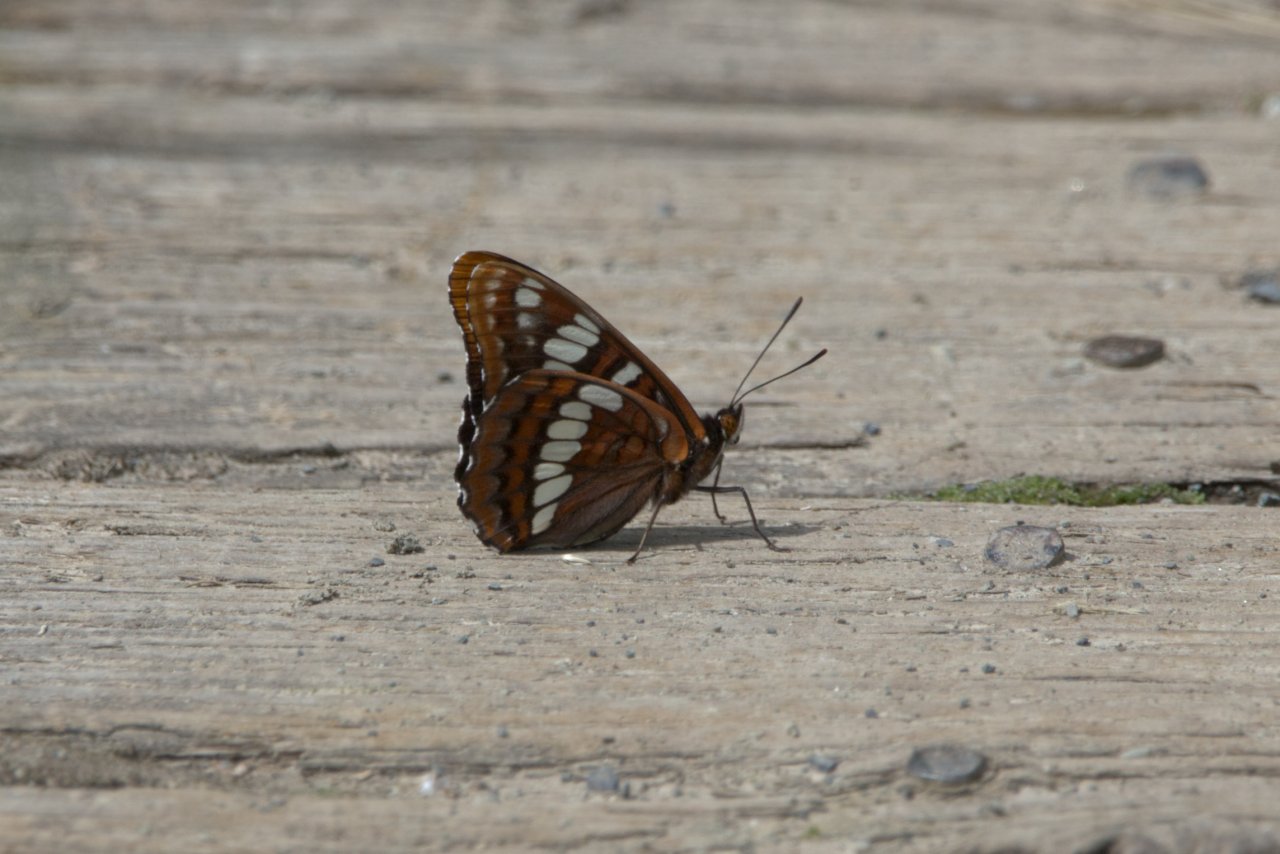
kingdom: Animalia
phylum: Arthropoda
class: Insecta
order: Lepidoptera
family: Nymphalidae
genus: Limenitis
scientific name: Limenitis lorquini
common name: Lorquin's Admiral
